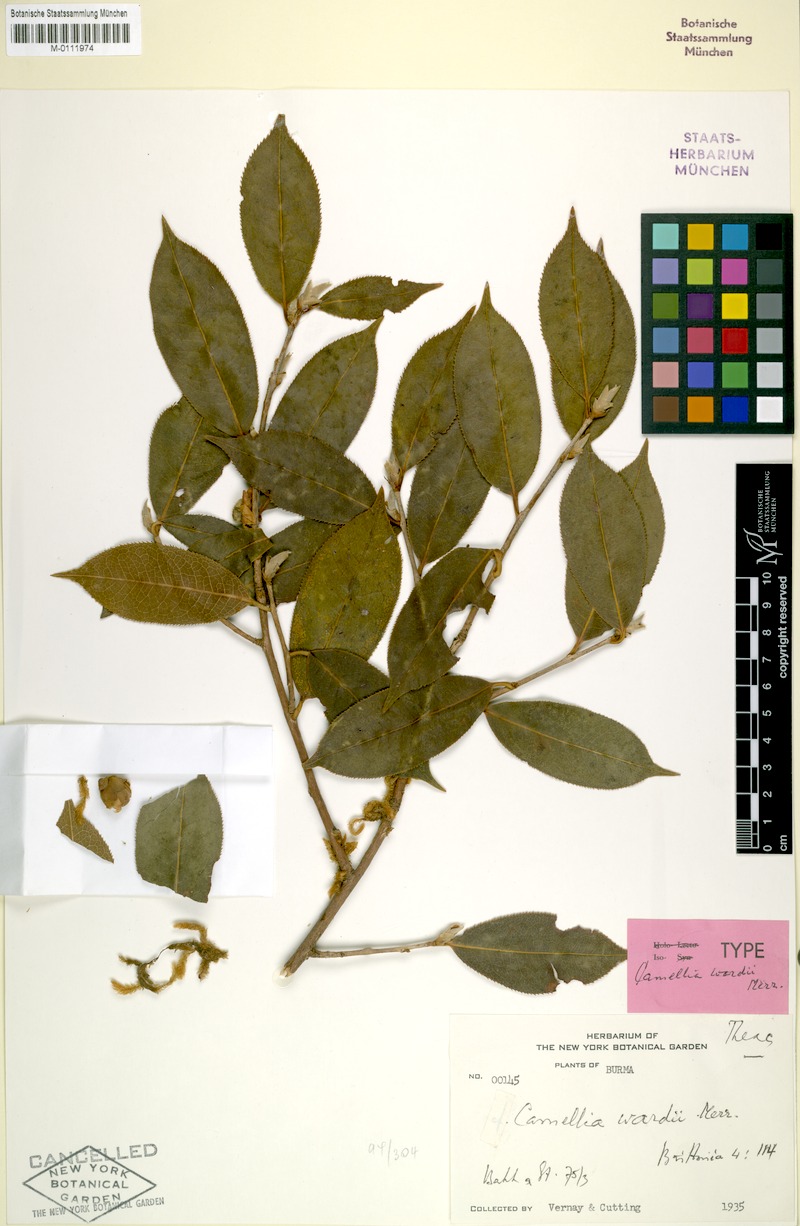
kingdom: Plantae
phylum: Tracheophyta
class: Magnoliopsida
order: Ericales
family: Theaceae
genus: Camellia
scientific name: Camellia wardii
